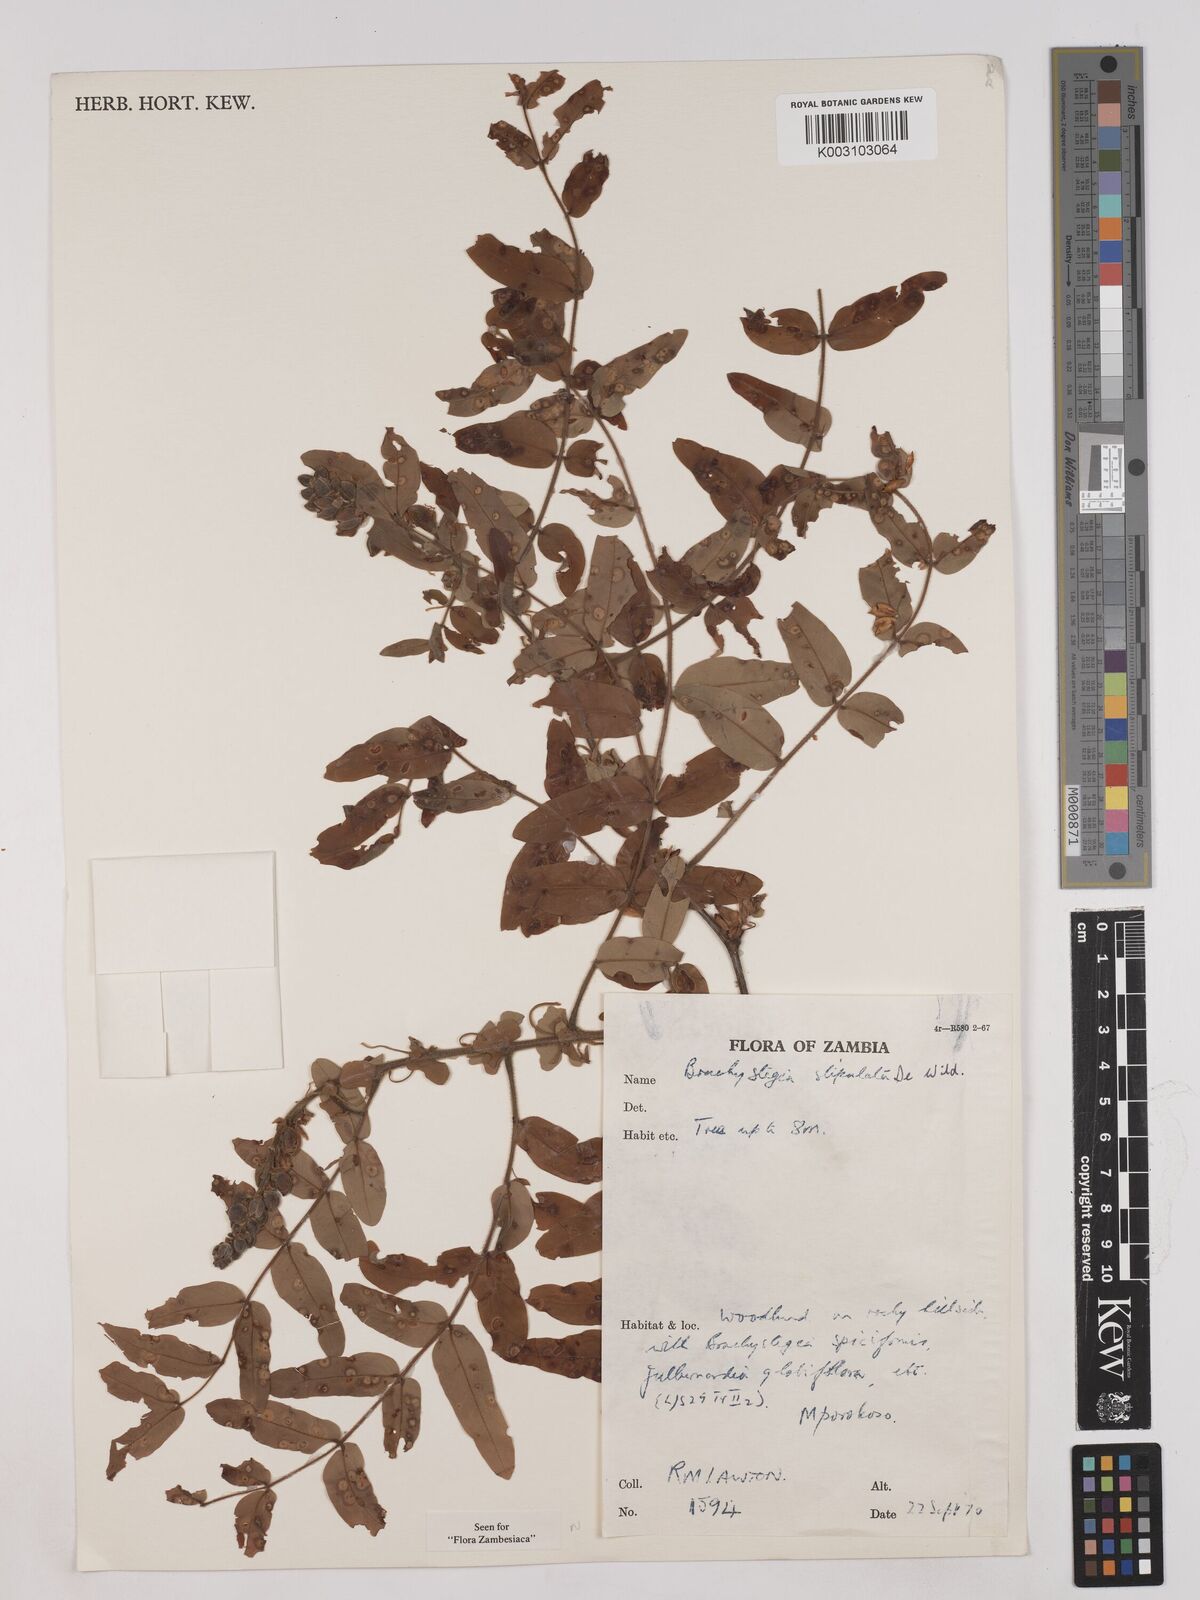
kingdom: Plantae
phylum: Tracheophyta
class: Magnoliopsida
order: Fabales
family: Fabaceae
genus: Brachystegia
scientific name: Brachystegia stipulata
